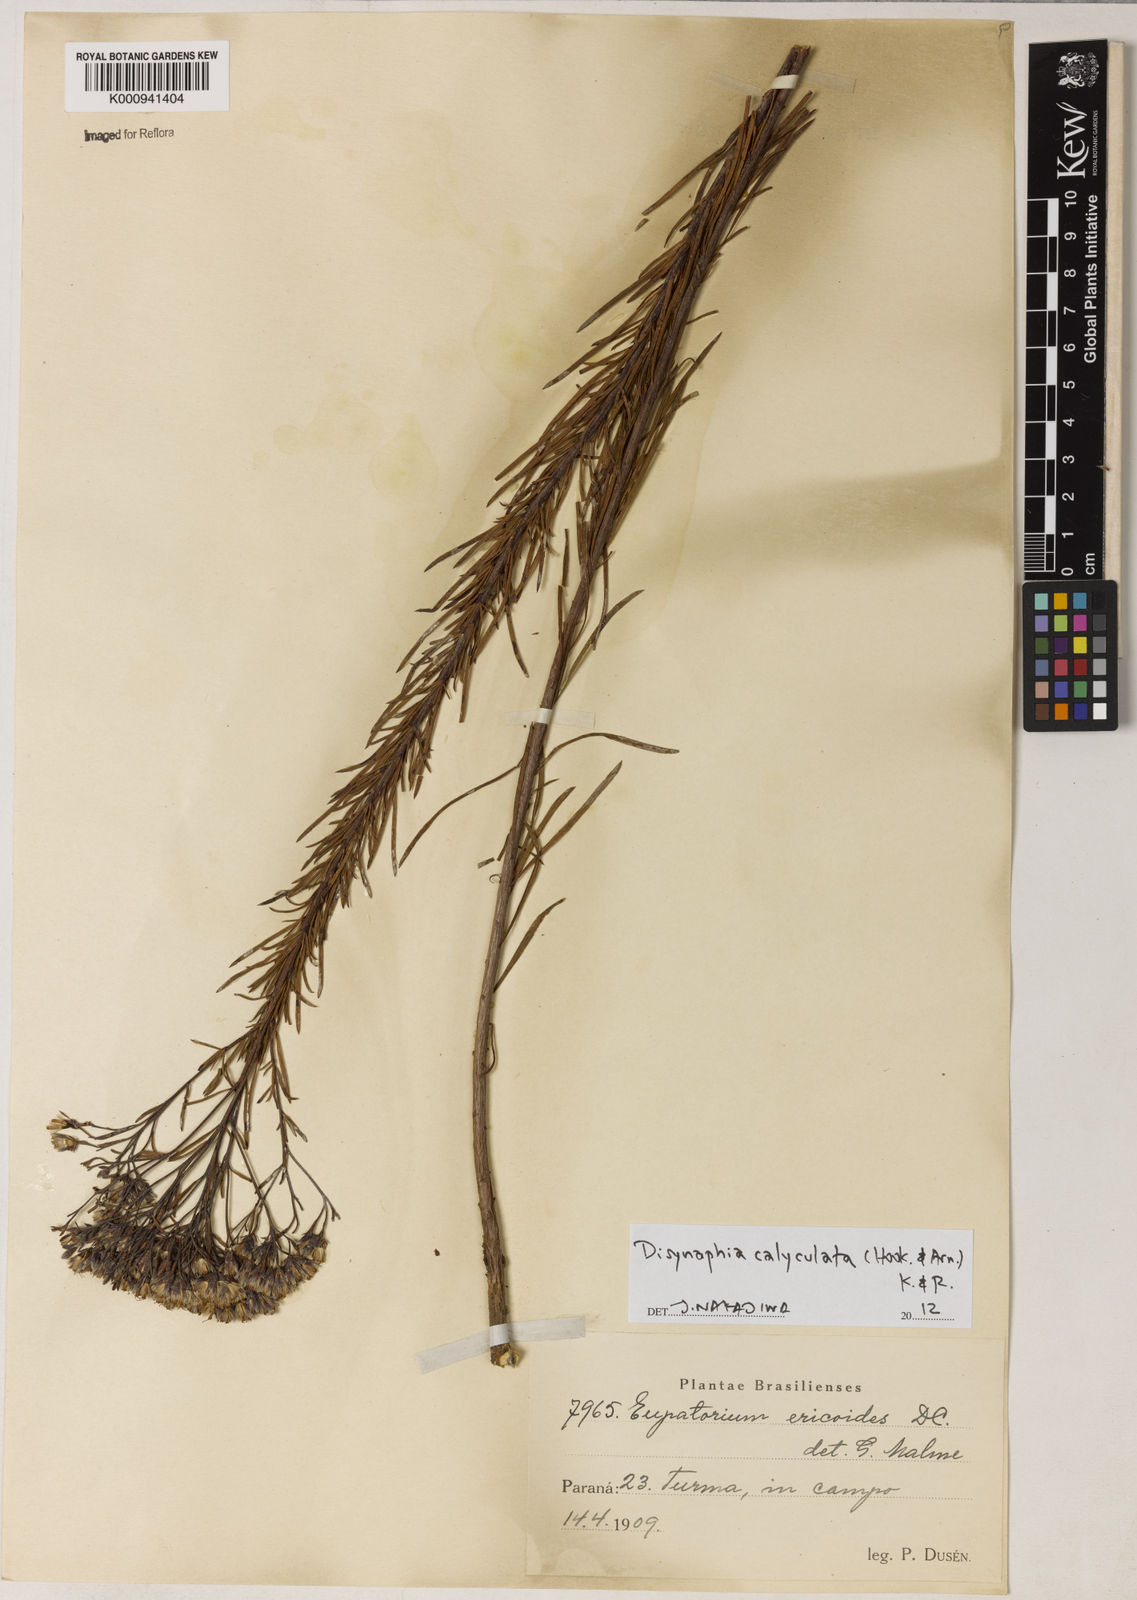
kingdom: Plantae
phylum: Tracheophyta
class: Magnoliopsida
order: Asterales
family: Asteraceae
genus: Disynaphia
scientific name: Disynaphia calyculata
